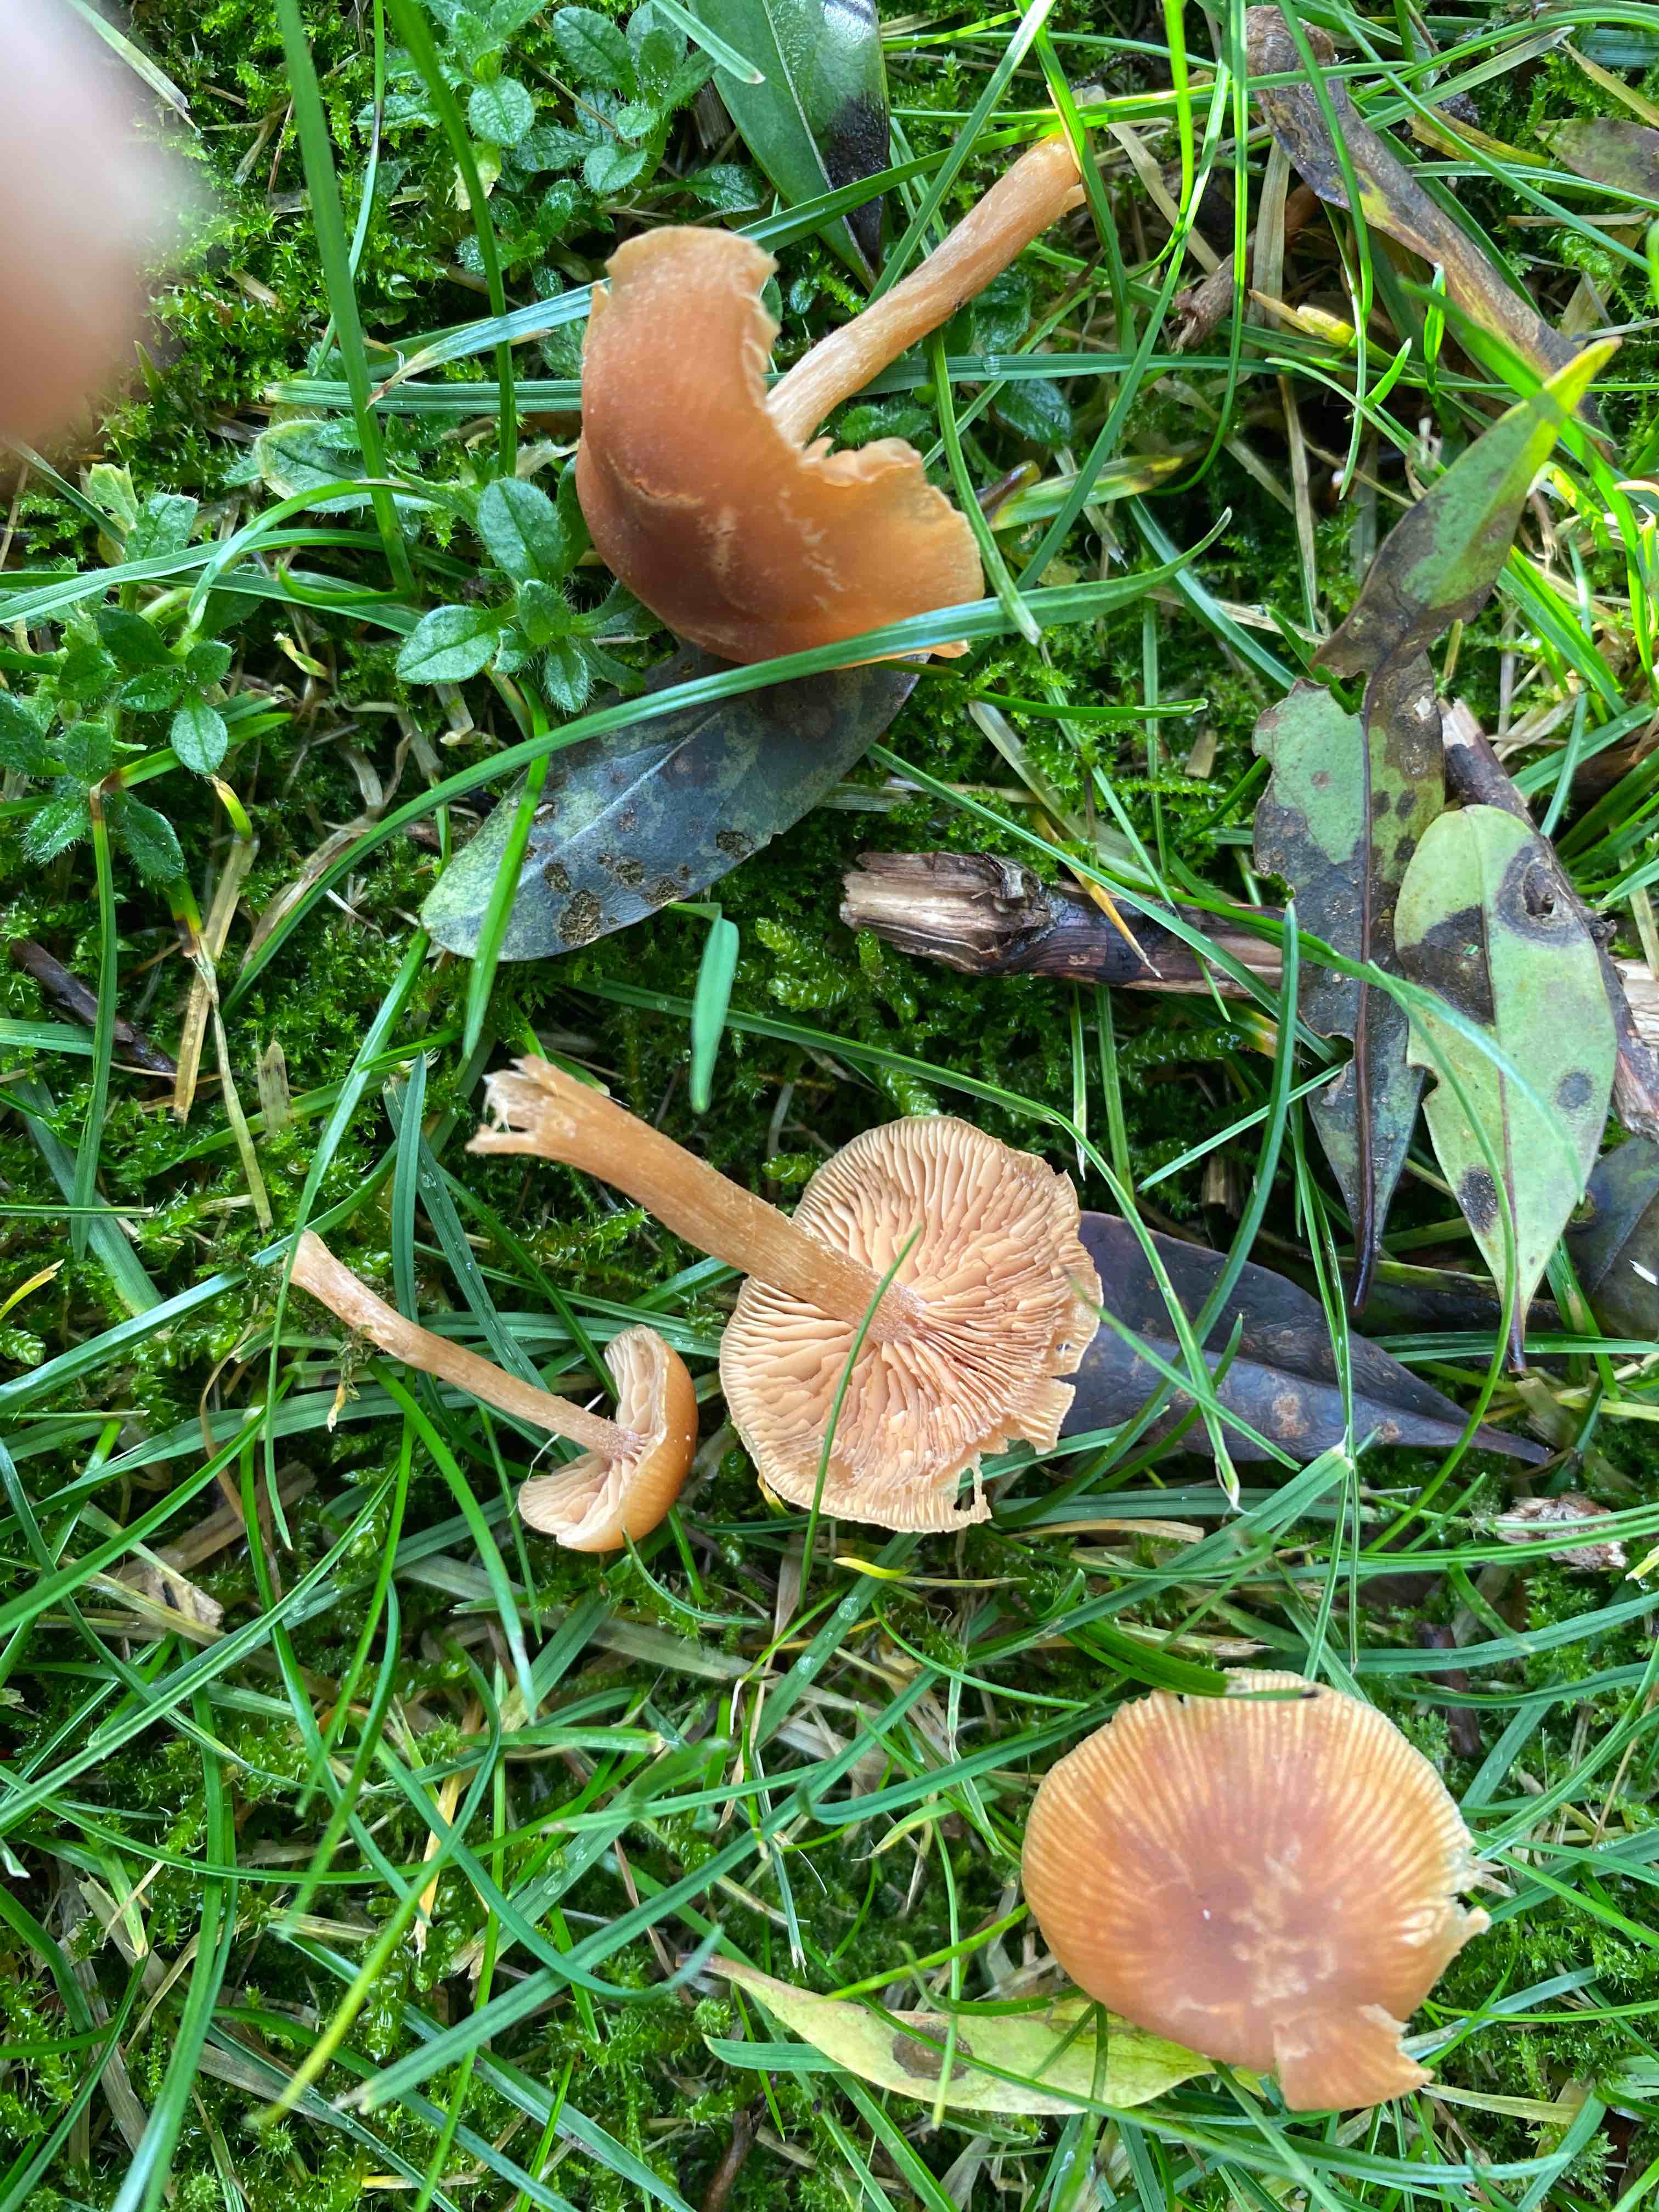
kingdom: Fungi
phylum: Basidiomycota
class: Agaricomycetes
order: Agaricales
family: Tubariaceae
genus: Tubaria
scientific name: Tubaria furfuracea
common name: kliddet fnughat
